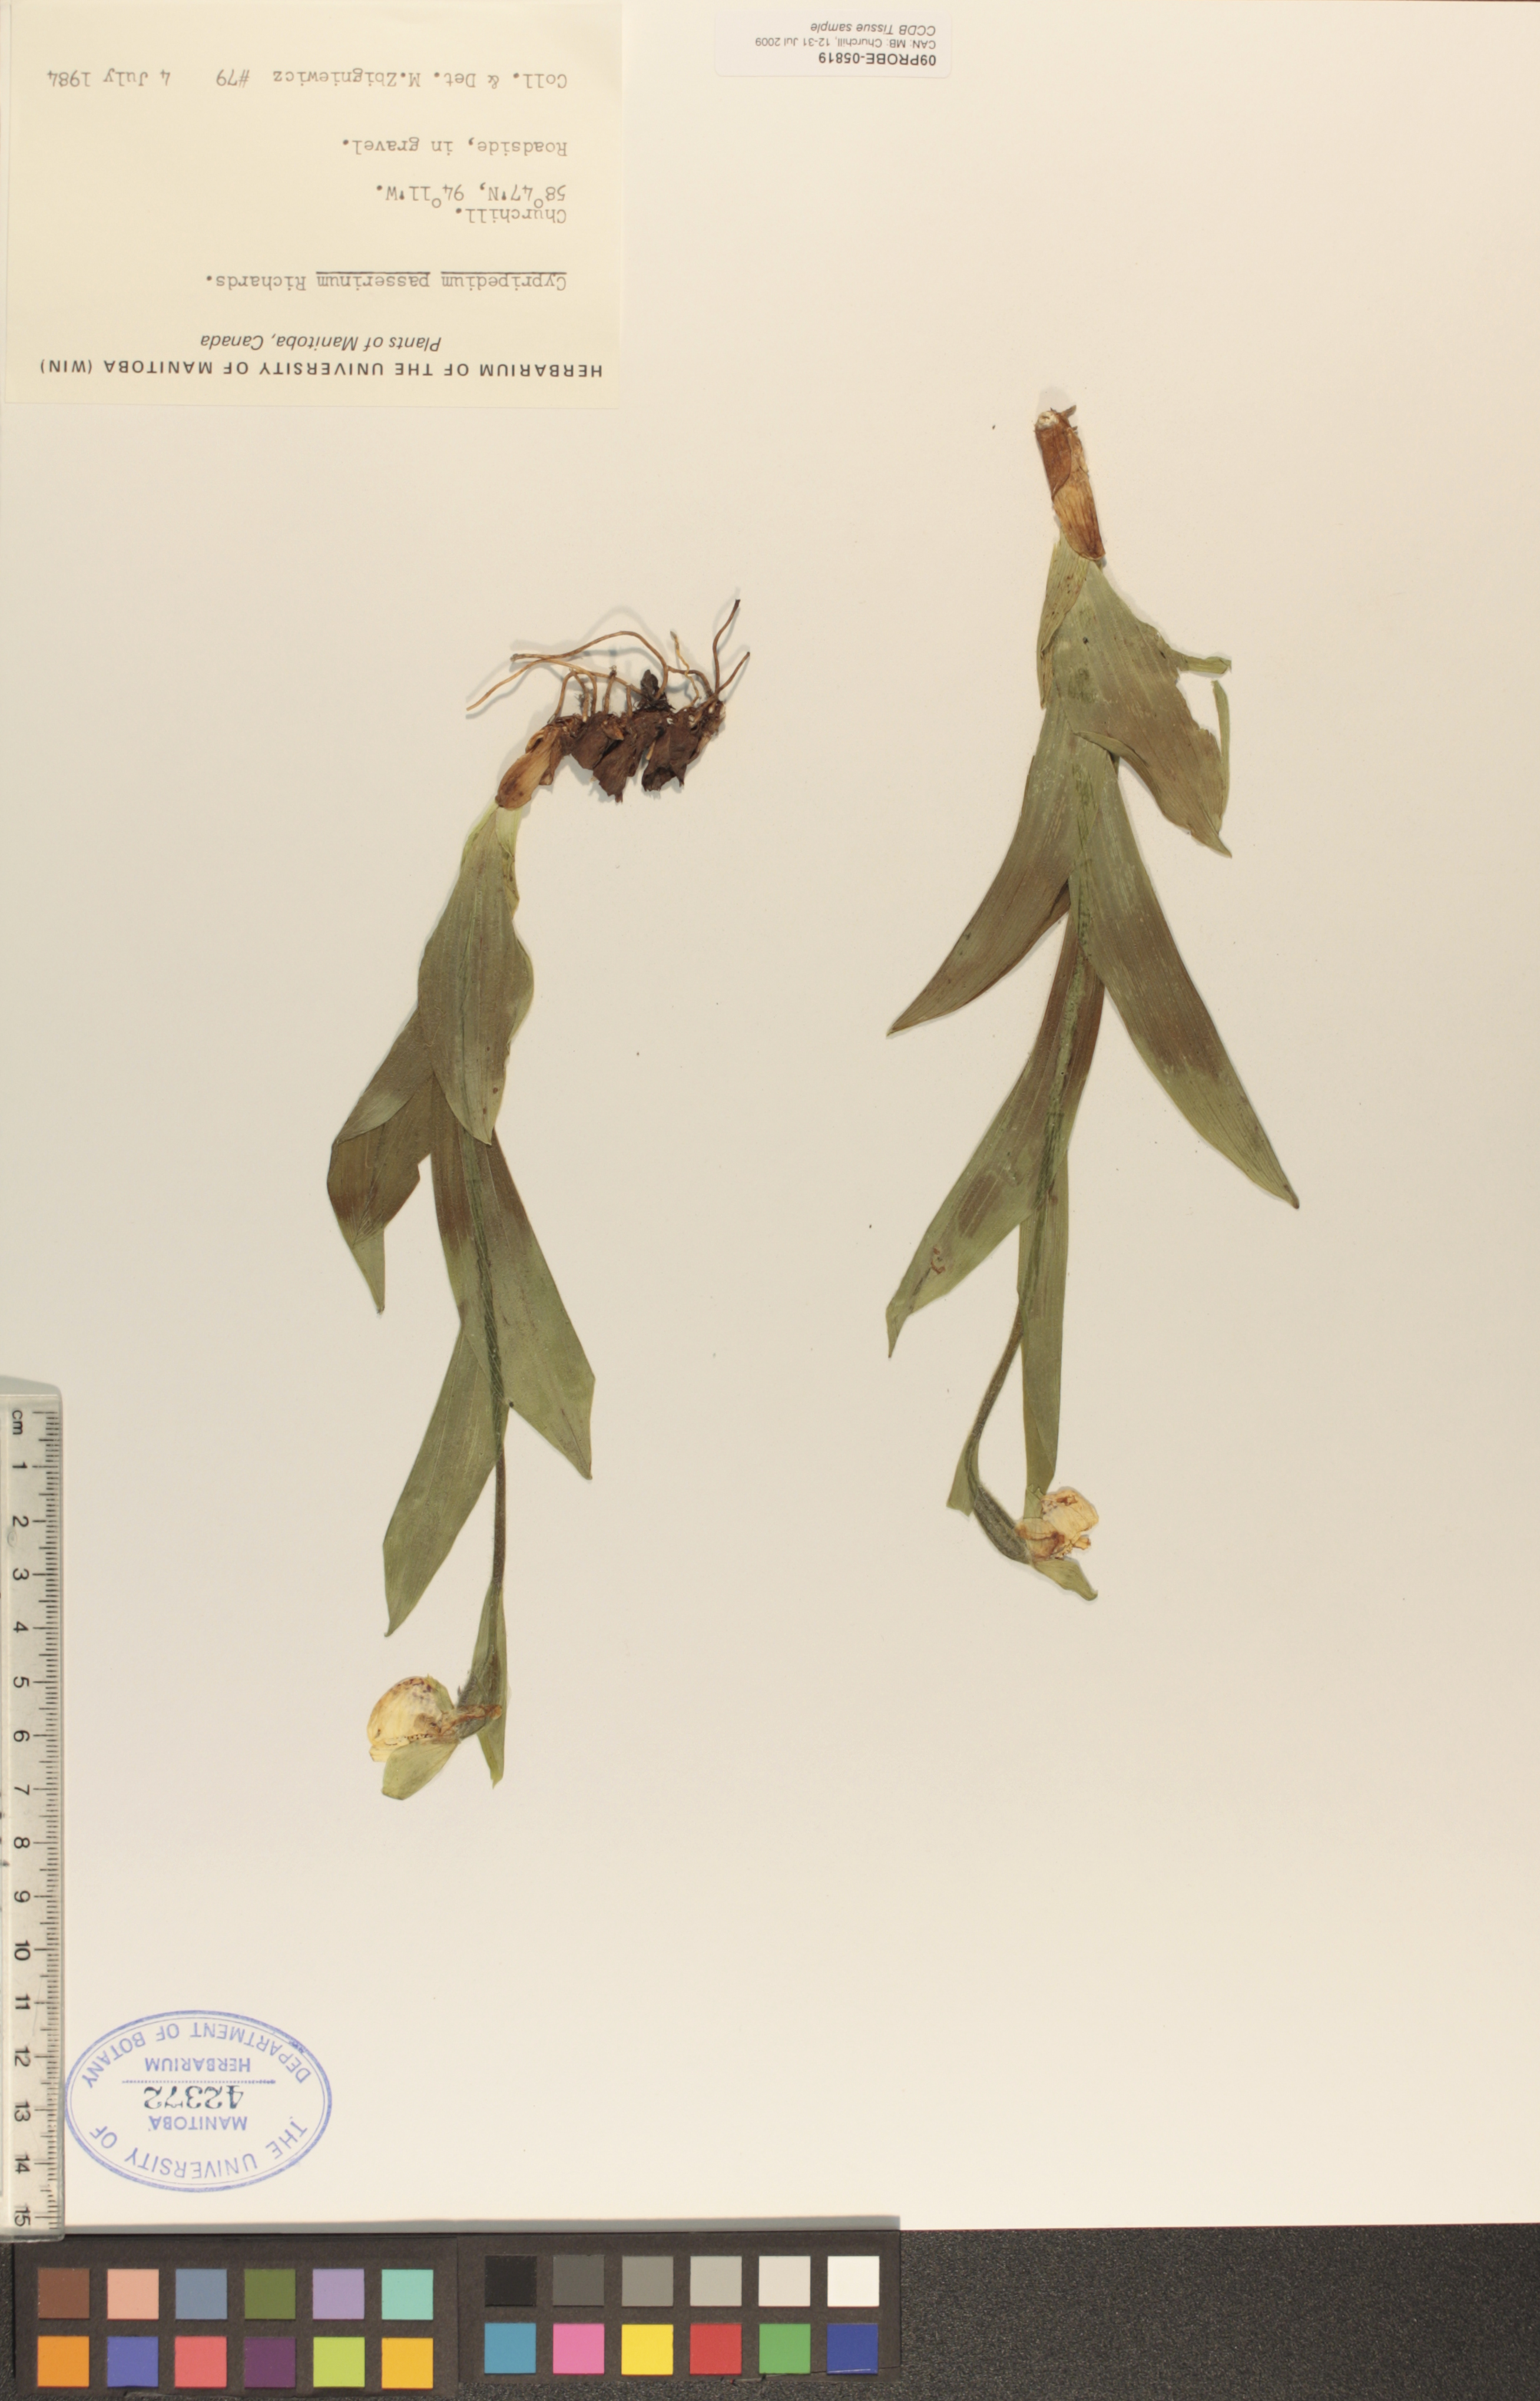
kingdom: Plantae
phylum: Tracheophyta
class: Liliopsida
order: Asparagales
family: Orchidaceae
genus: Cypripedium
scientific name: Cypripedium passerinum
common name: Sparrow's-egg lady's-slipper
